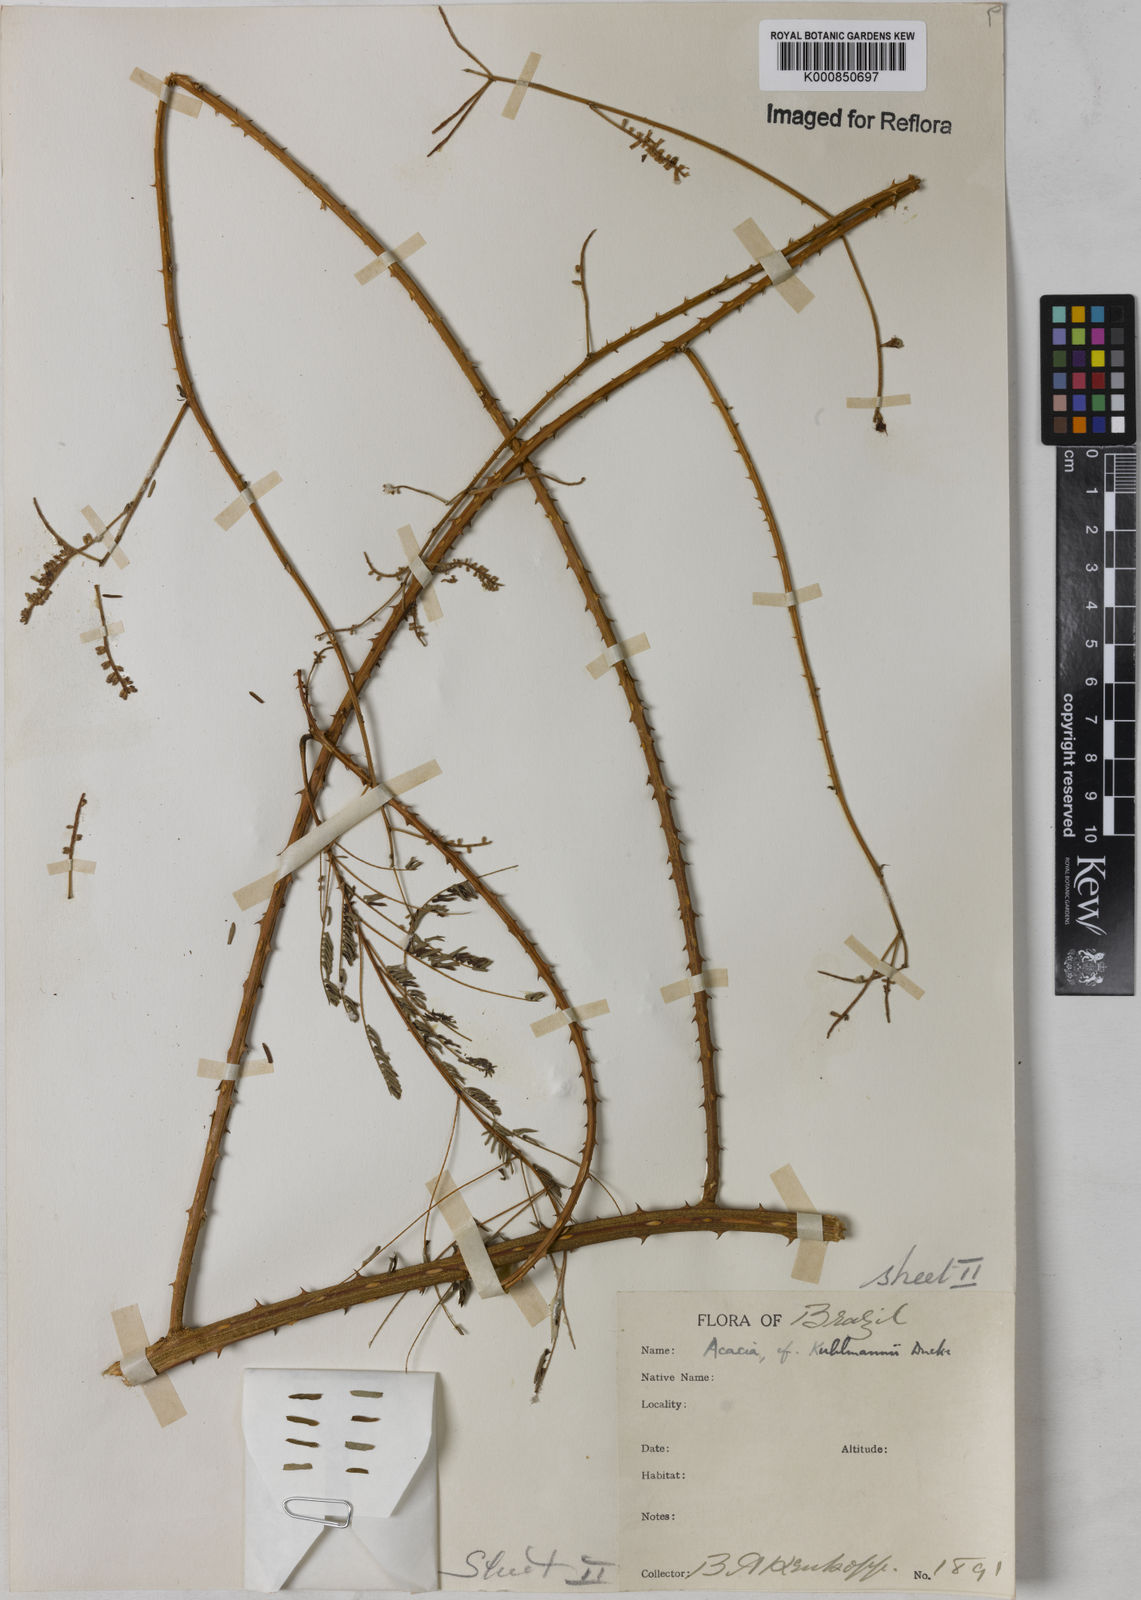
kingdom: Plantae
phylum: Tracheophyta
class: Magnoliopsida
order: Fabales
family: Fabaceae
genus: Senegalia
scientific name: Senegalia kuhlmannii
